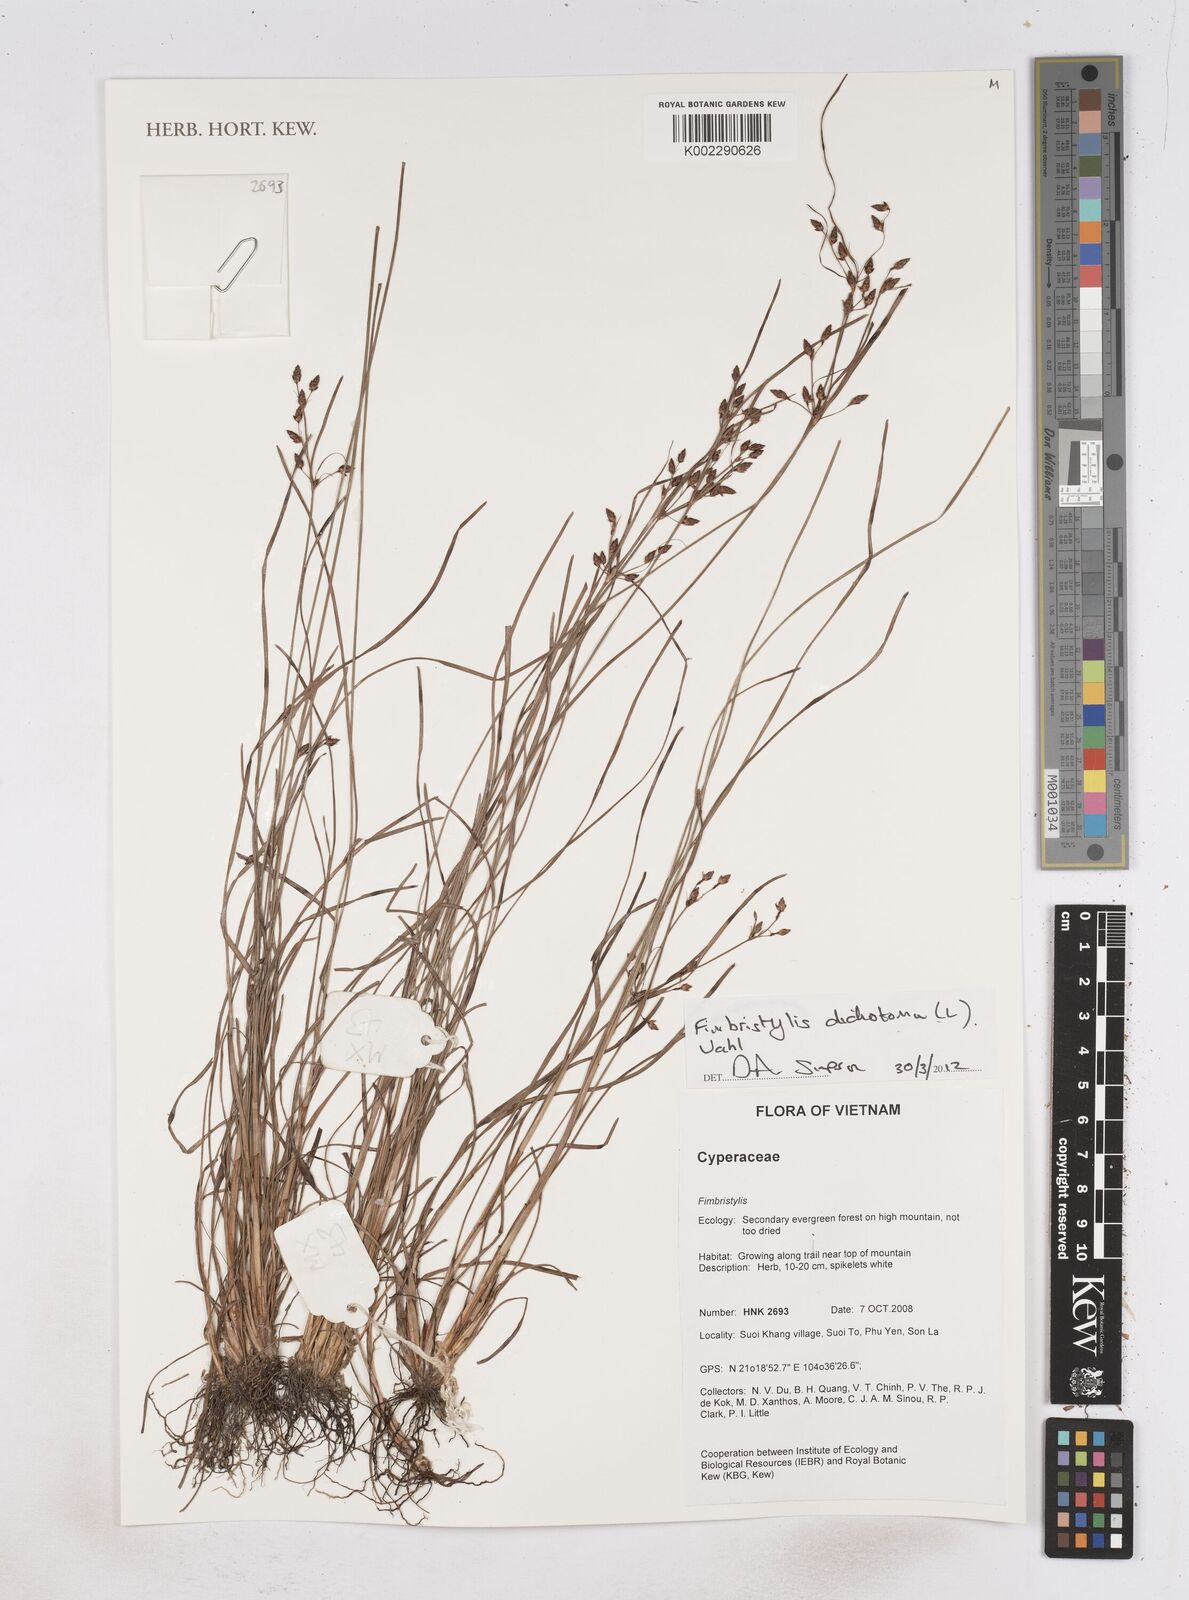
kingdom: Plantae
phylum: Tracheophyta
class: Liliopsida
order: Poales
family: Cyperaceae
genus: Fimbristylis
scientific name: Fimbristylis dichotoma
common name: Forked fimbry
